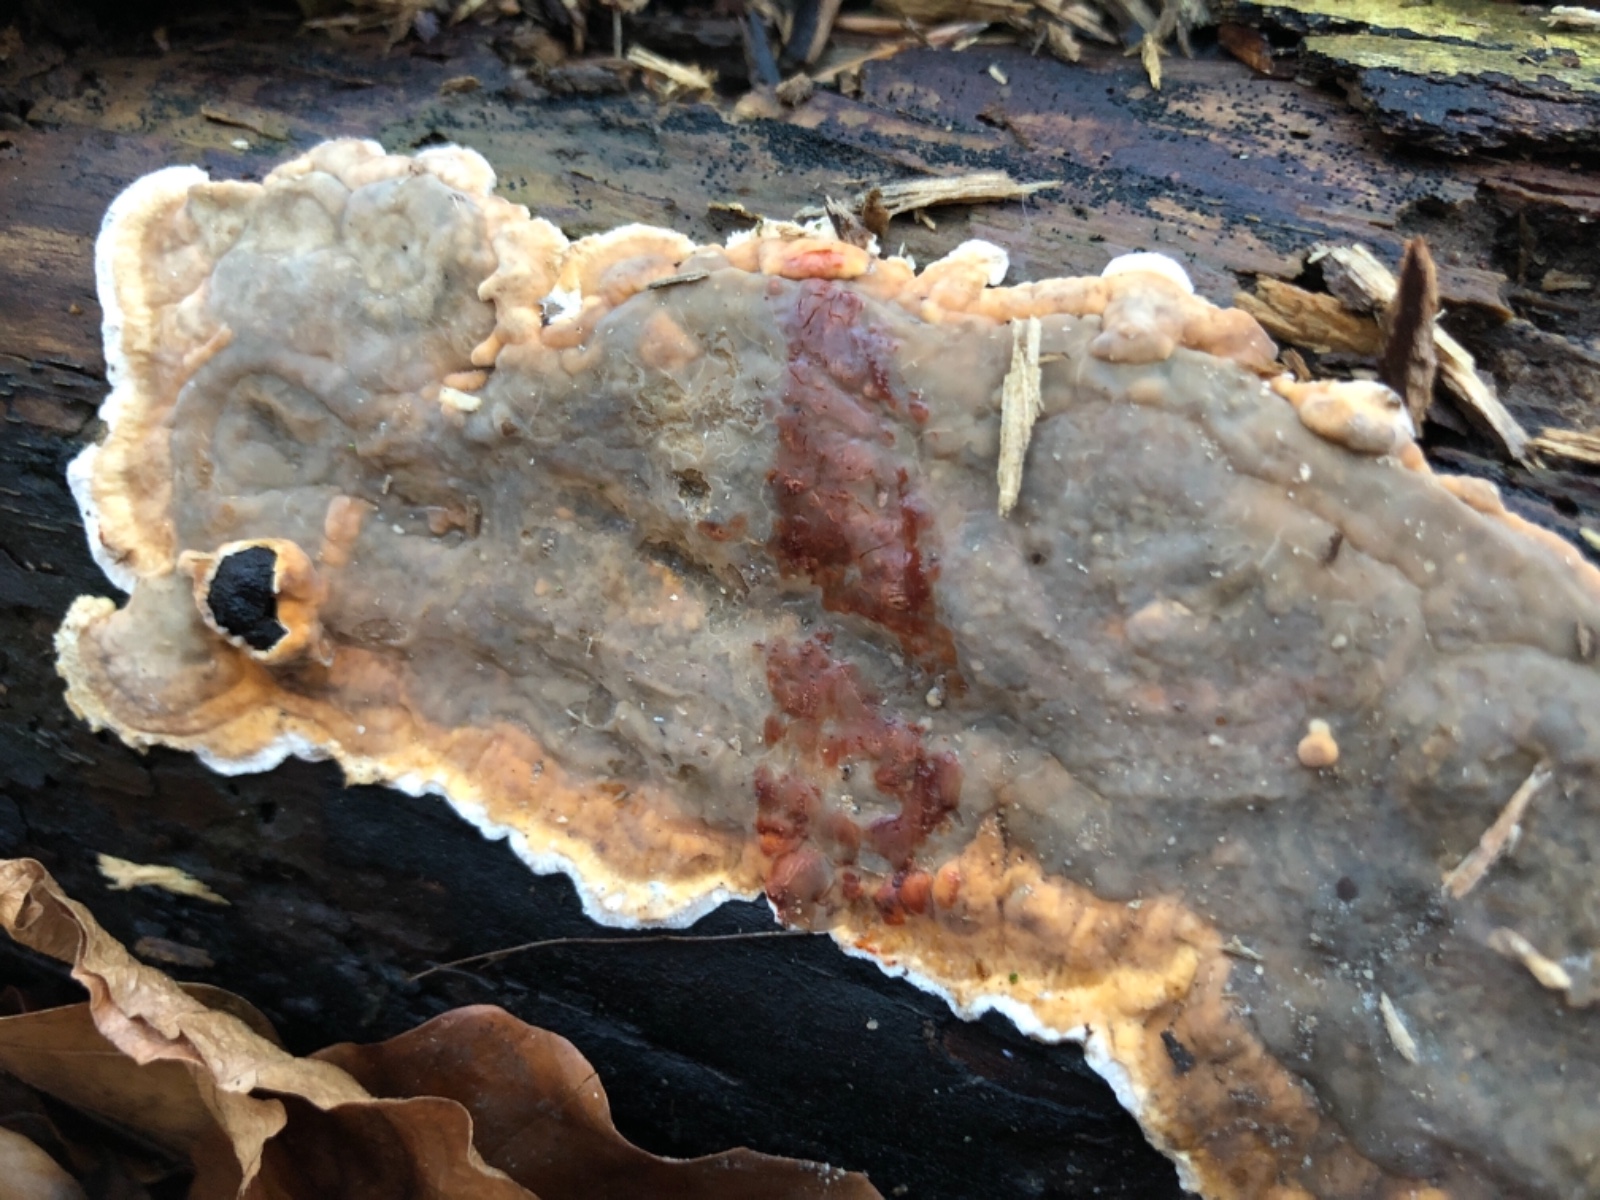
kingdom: Fungi
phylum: Basidiomycota
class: Agaricomycetes
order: Russulales
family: Stereaceae
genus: Stereum
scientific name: Stereum rugosum
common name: rynket lædersvamp
